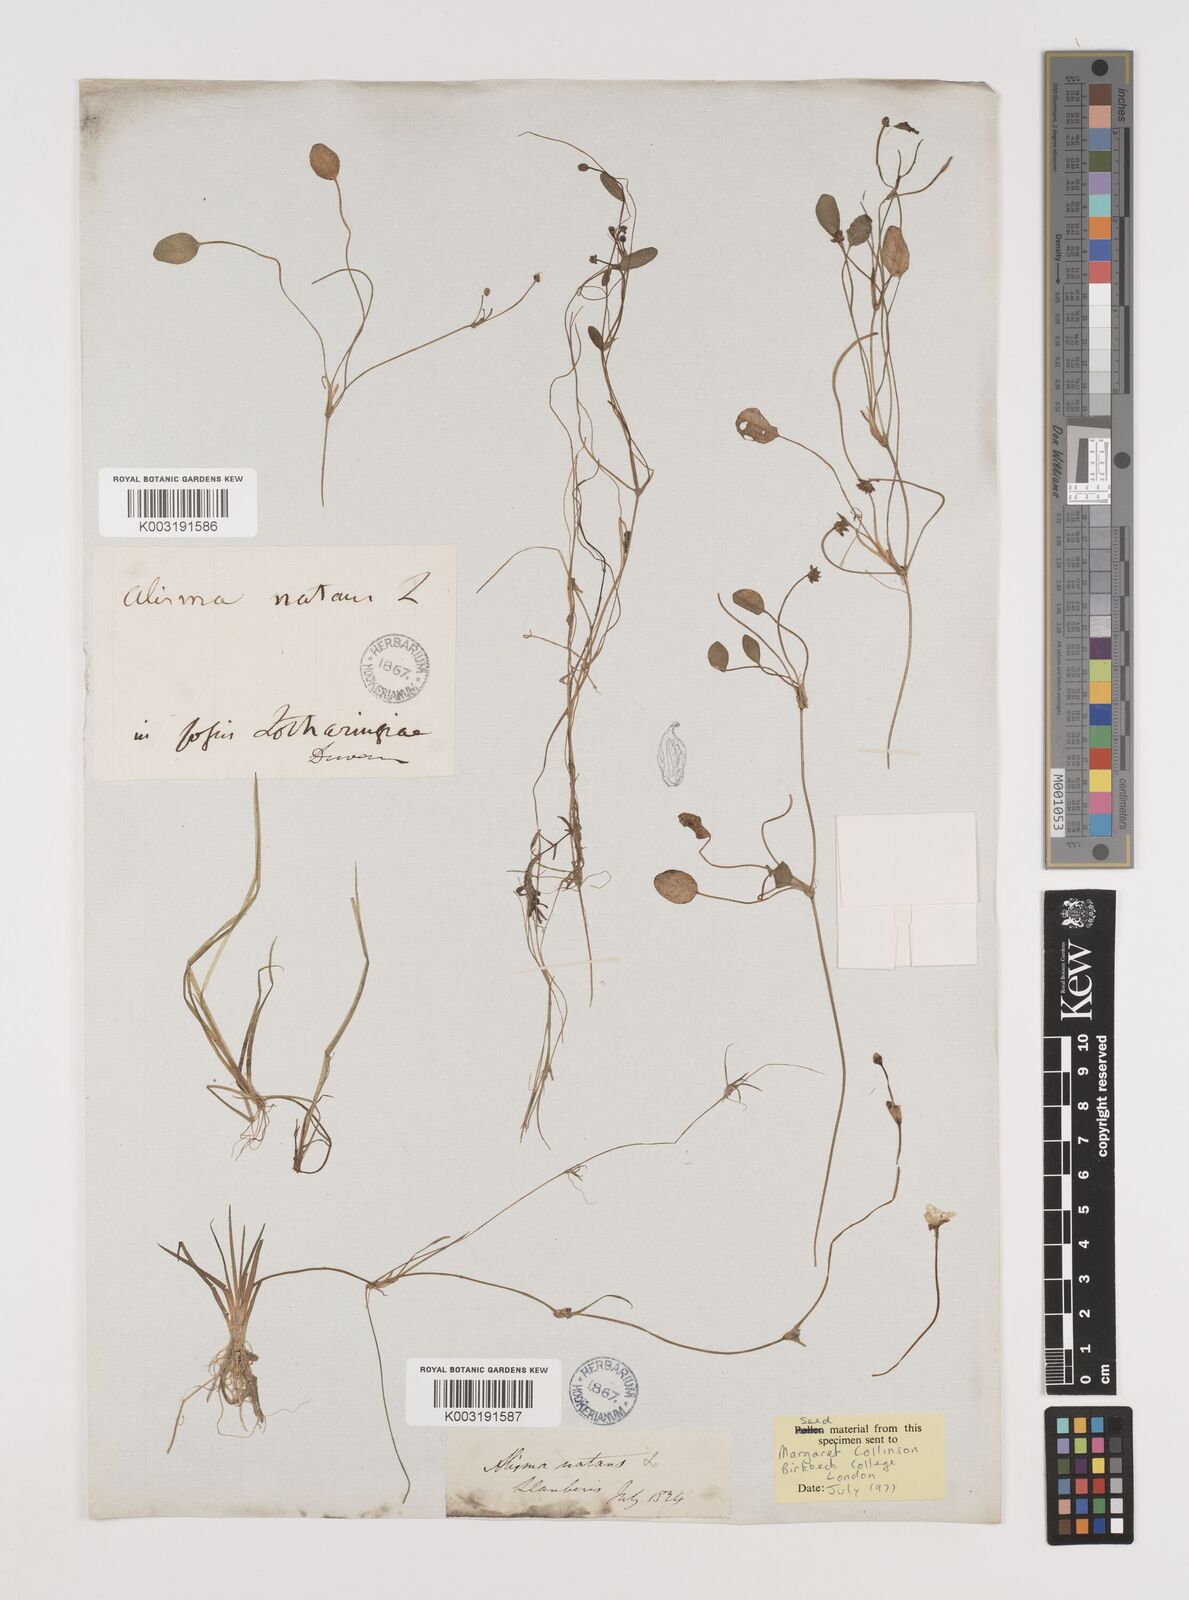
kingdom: Plantae
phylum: Tracheophyta
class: Liliopsida
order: Alismatales
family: Alismataceae
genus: Luronium
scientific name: Luronium natans
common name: Floating water-plantain
